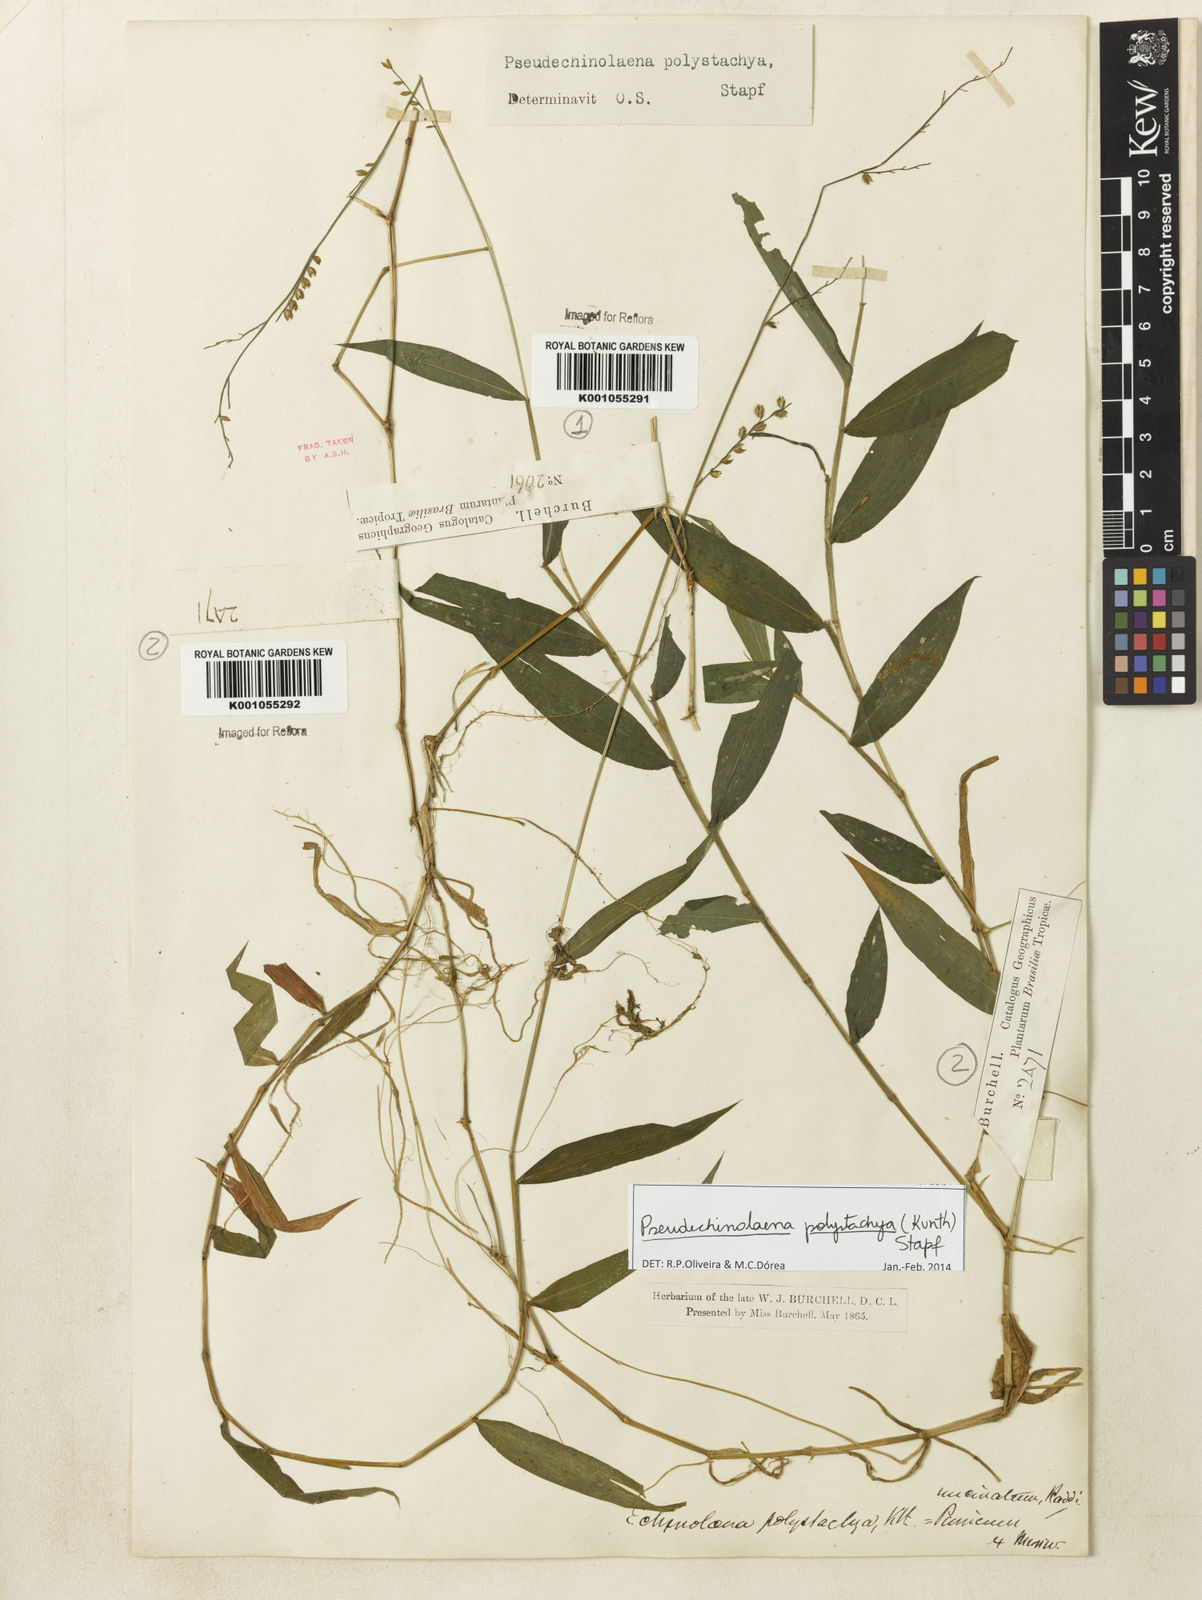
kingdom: Plantae
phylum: Tracheophyta
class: Liliopsida
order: Poales
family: Poaceae
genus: Pseudechinolaena
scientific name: Pseudechinolaena polystachya
